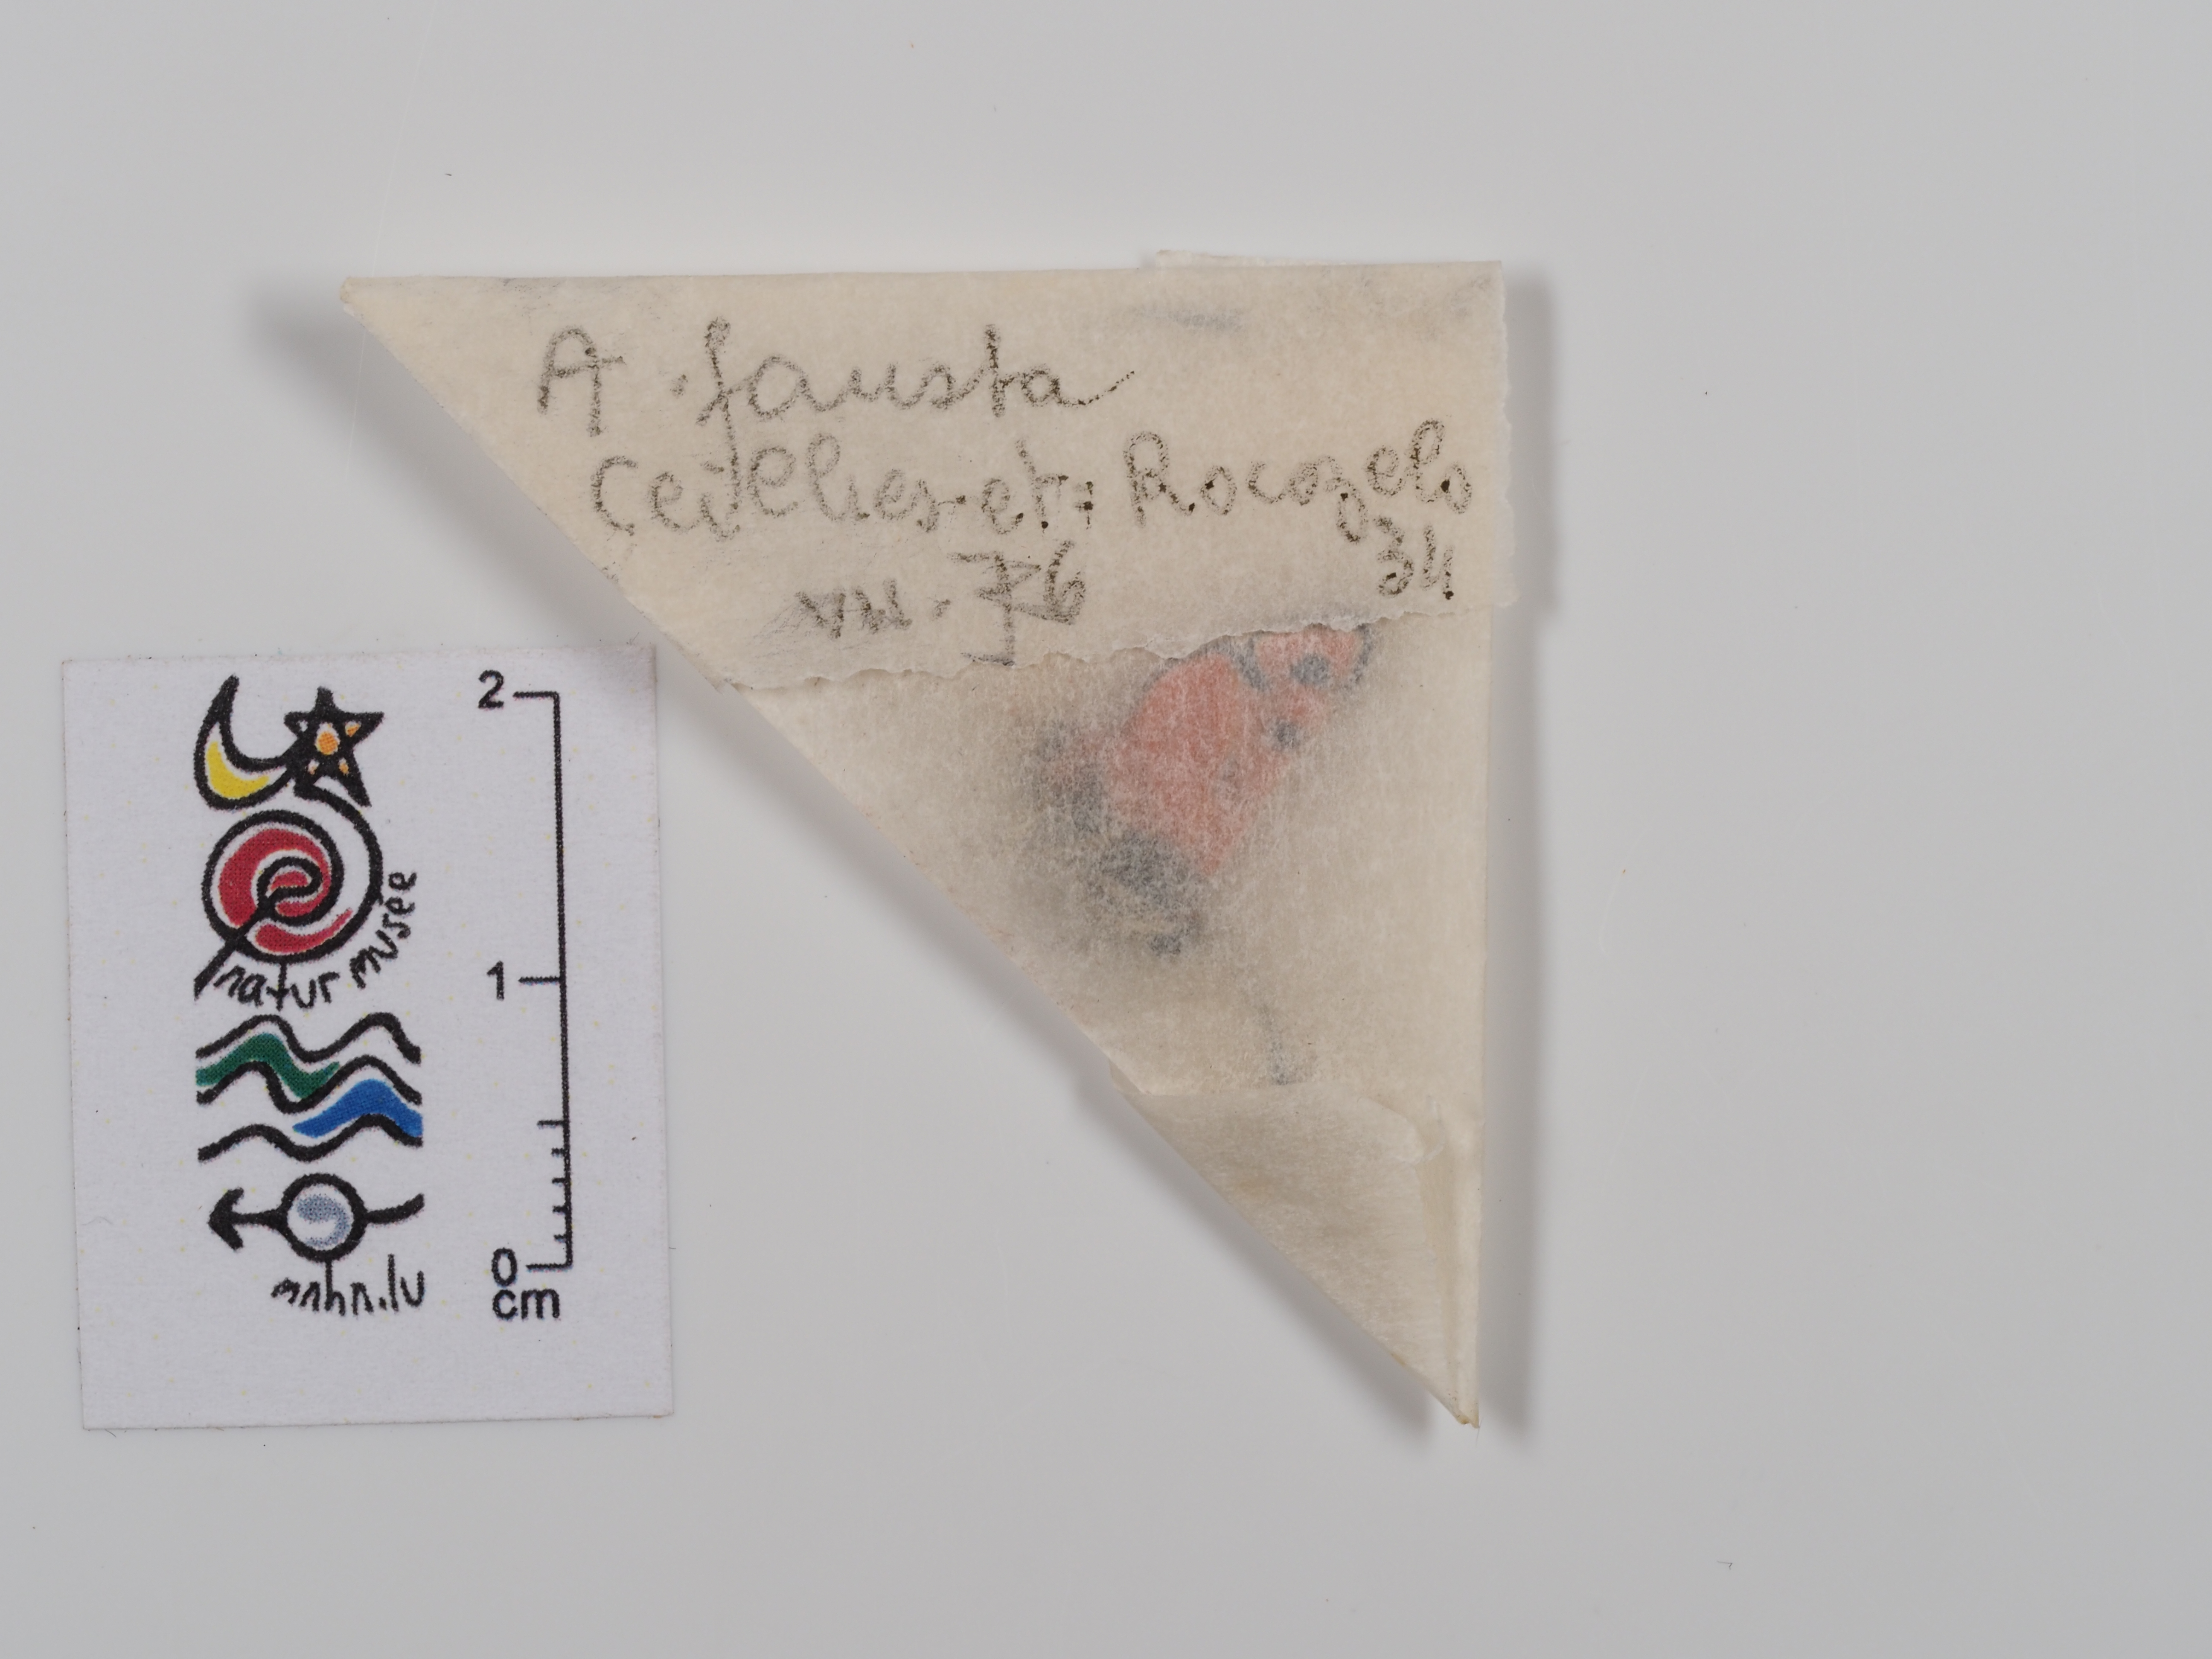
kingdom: Animalia
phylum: Arthropoda
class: Insecta
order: Lepidoptera
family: Zygaenidae
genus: Zygaena
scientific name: Zygaena fausta
